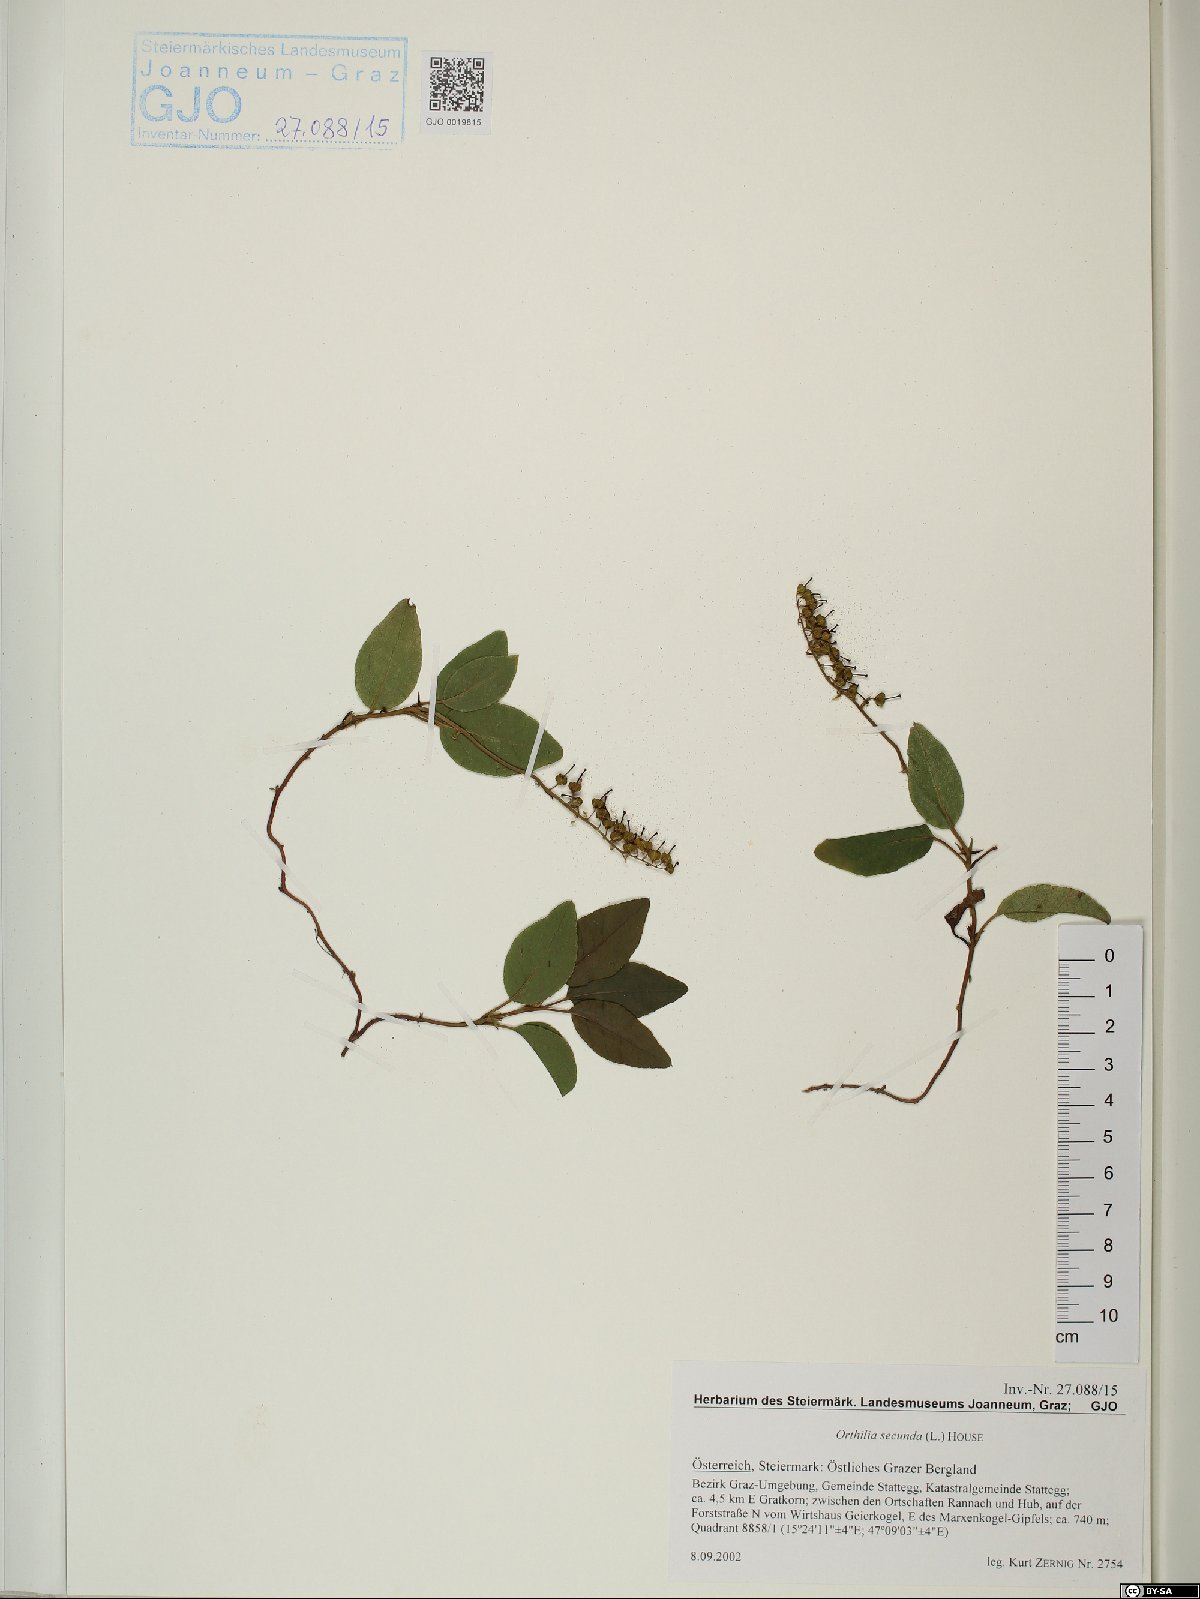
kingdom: Plantae
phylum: Tracheophyta
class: Magnoliopsida
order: Ericales
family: Ericaceae
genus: Orthilia
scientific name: Orthilia secunda
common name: One-sided orthilia
